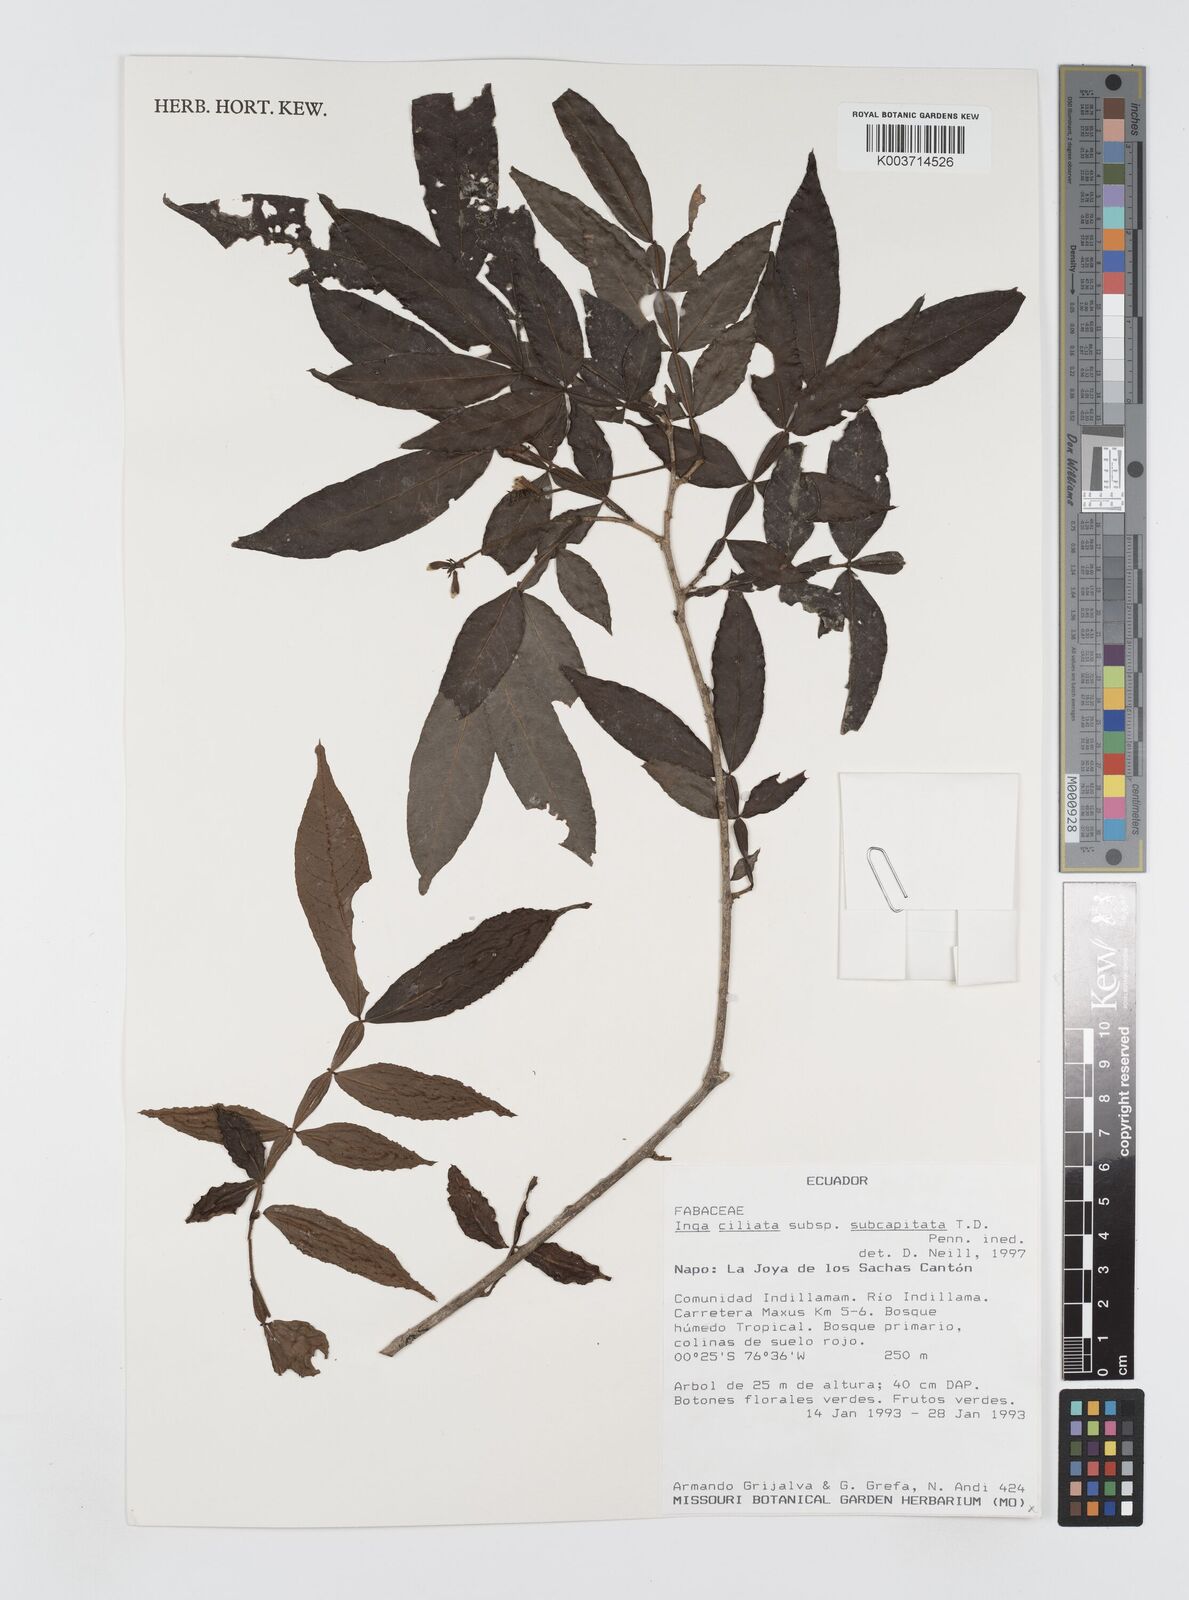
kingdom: Plantae
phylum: Tracheophyta
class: Magnoliopsida
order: Fabales
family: Fabaceae
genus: Inga
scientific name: Inga ciliata
